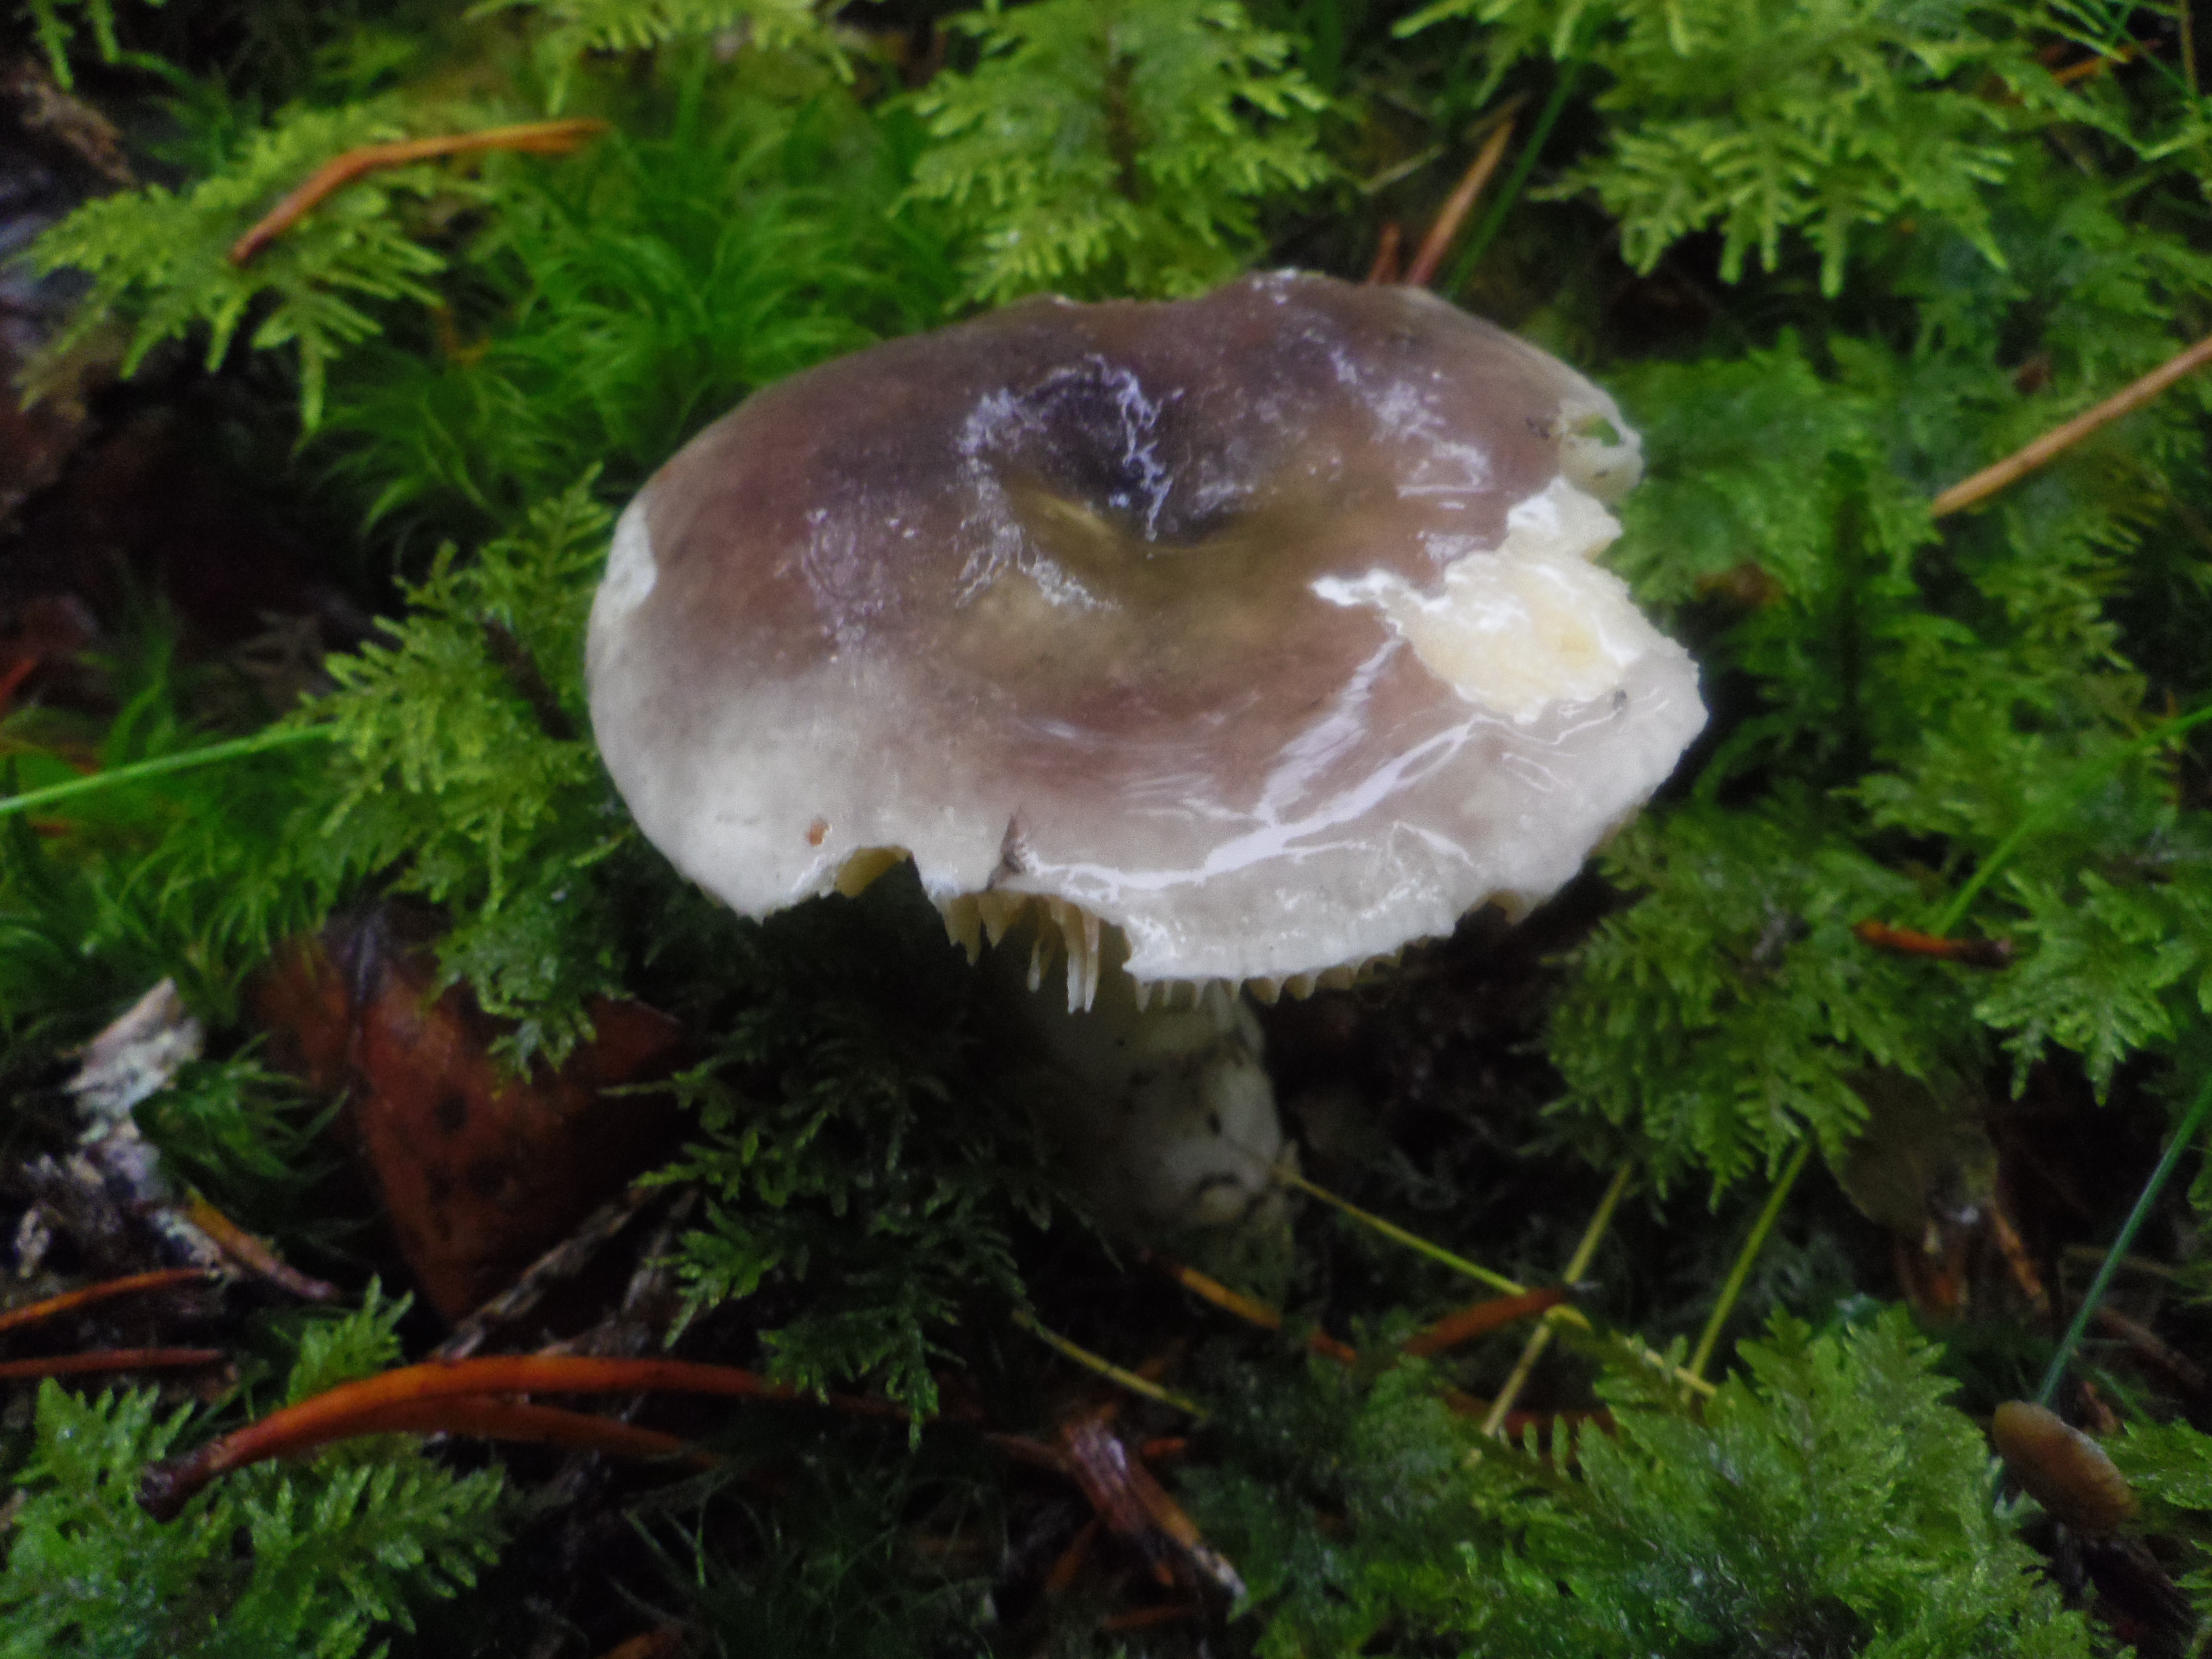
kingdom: Fungi
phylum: Basidiomycota
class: Agaricomycetes
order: Russulales
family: Russulaceae
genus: Russula
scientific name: Russula postiana
